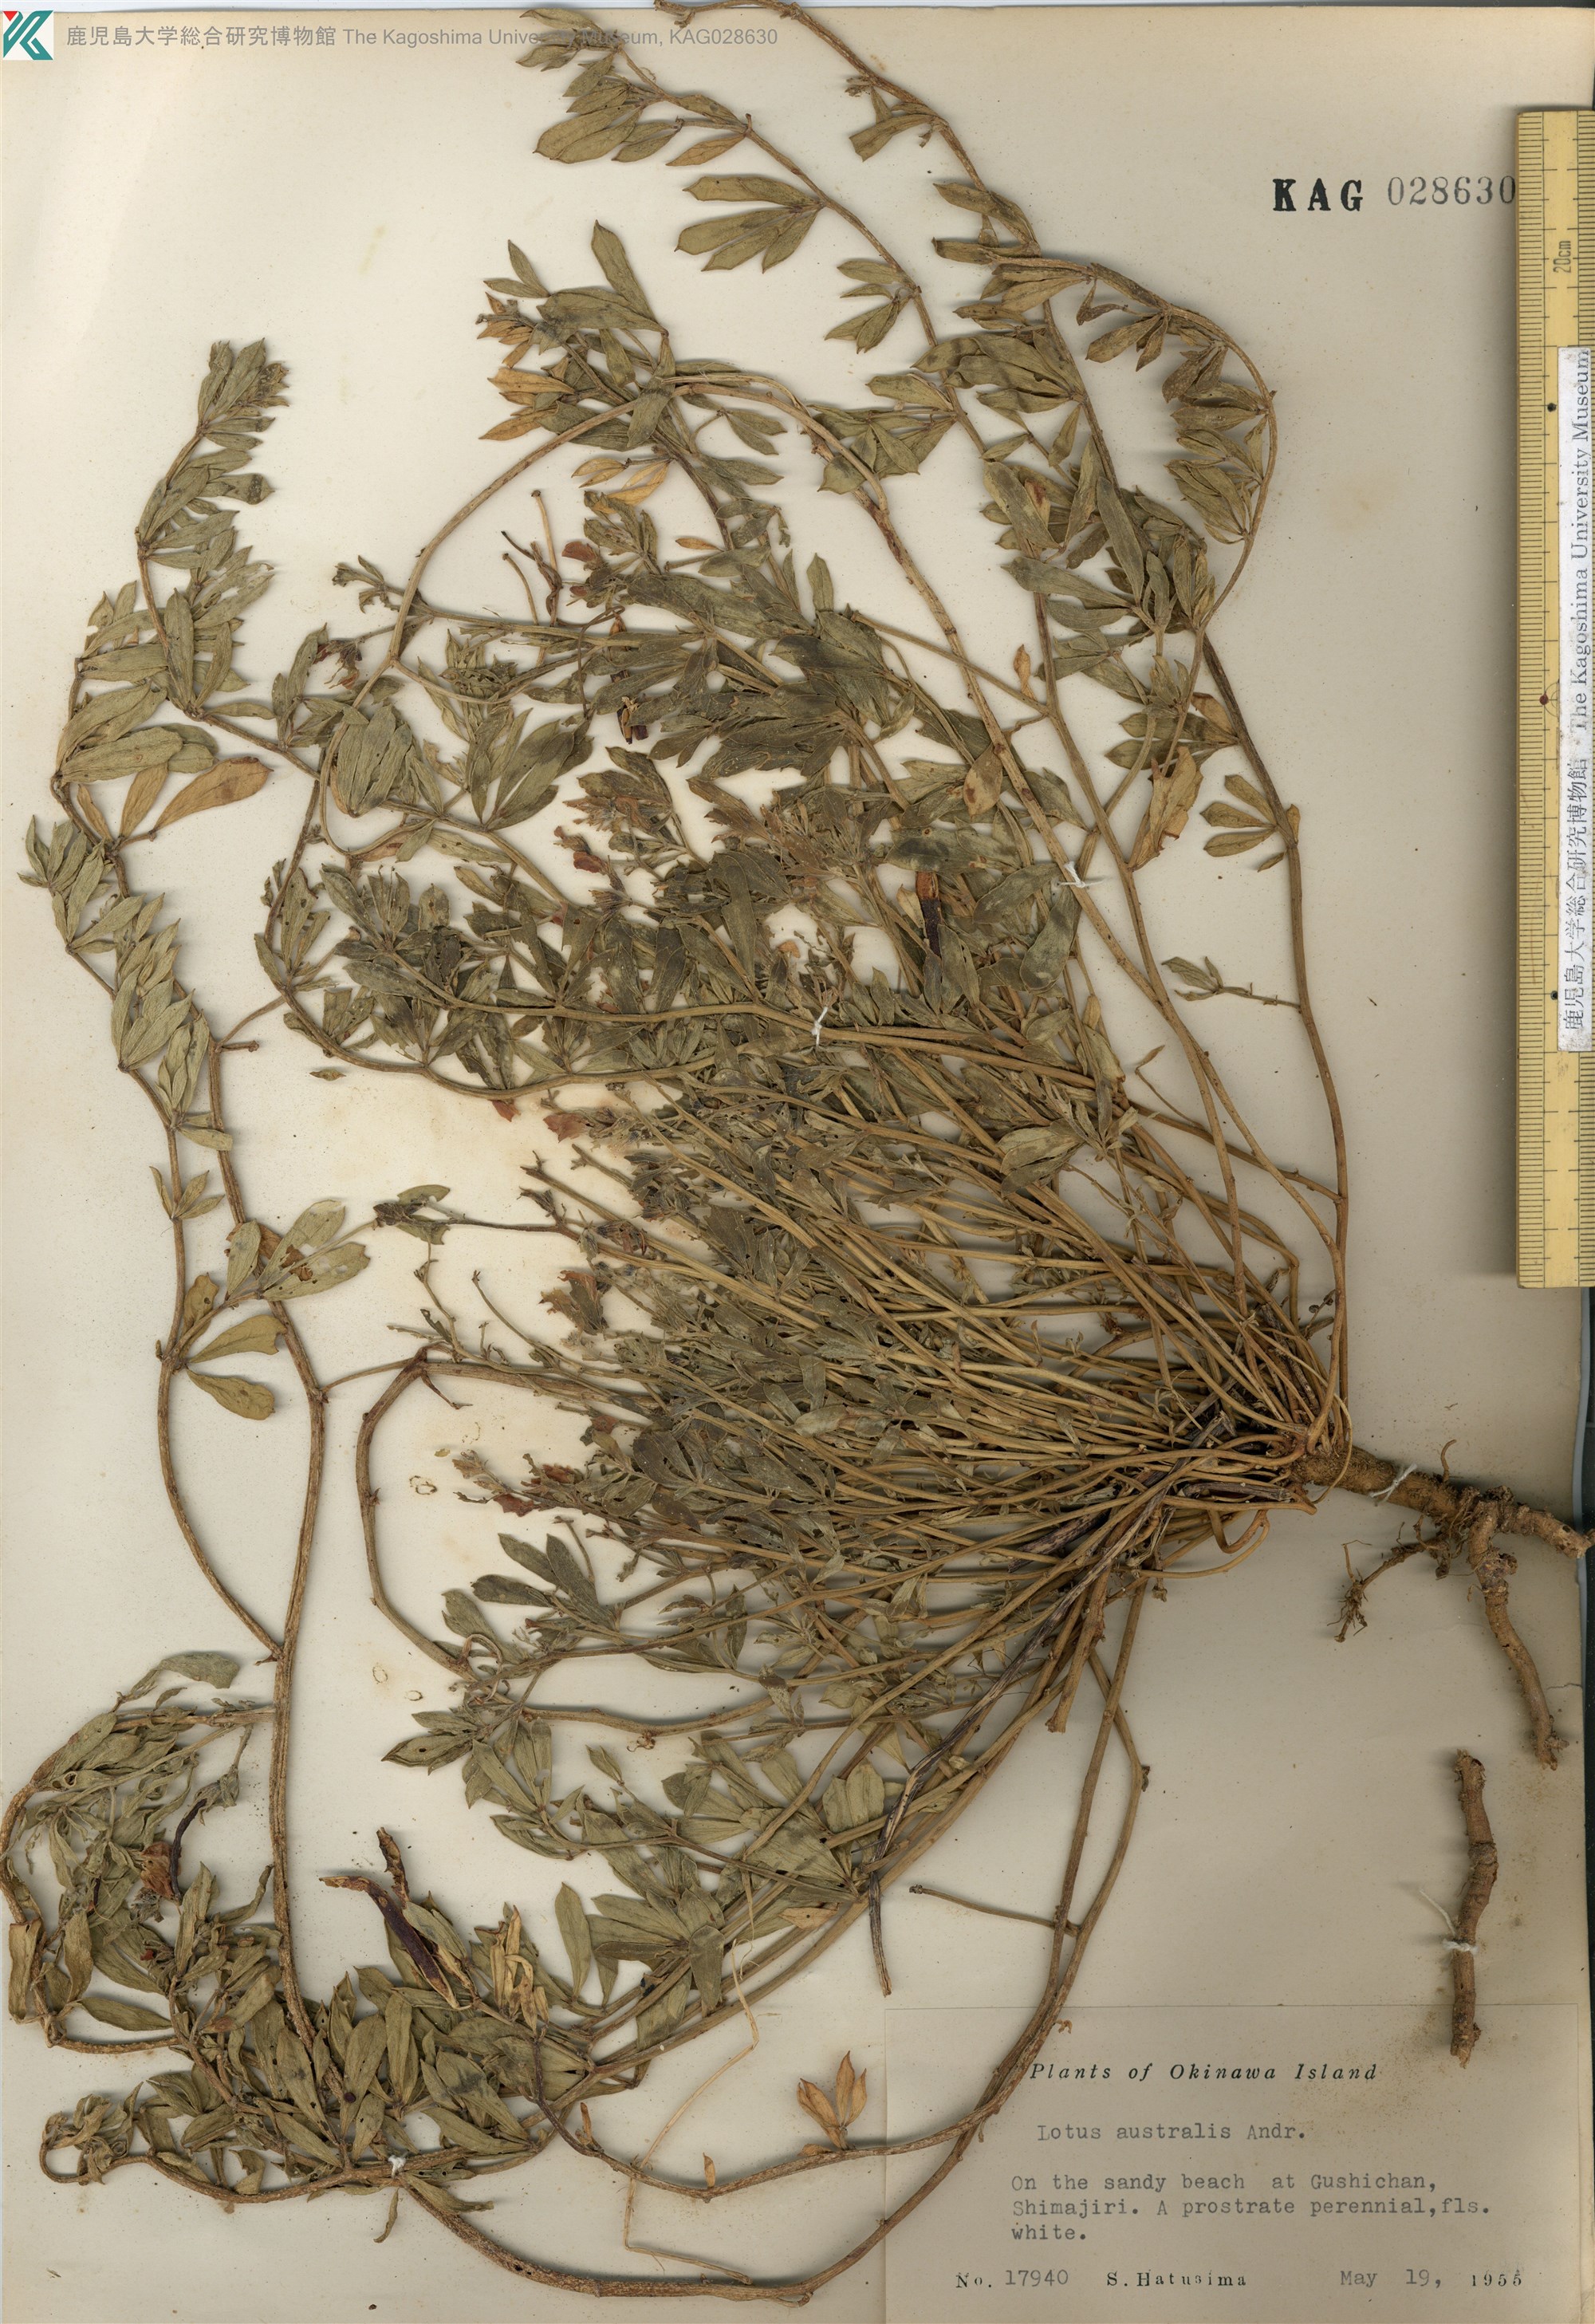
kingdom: Plantae
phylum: Tracheophyta
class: Magnoliopsida
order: Fabales
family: Fabaceae
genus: Lotus
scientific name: Lotus taitungensis
